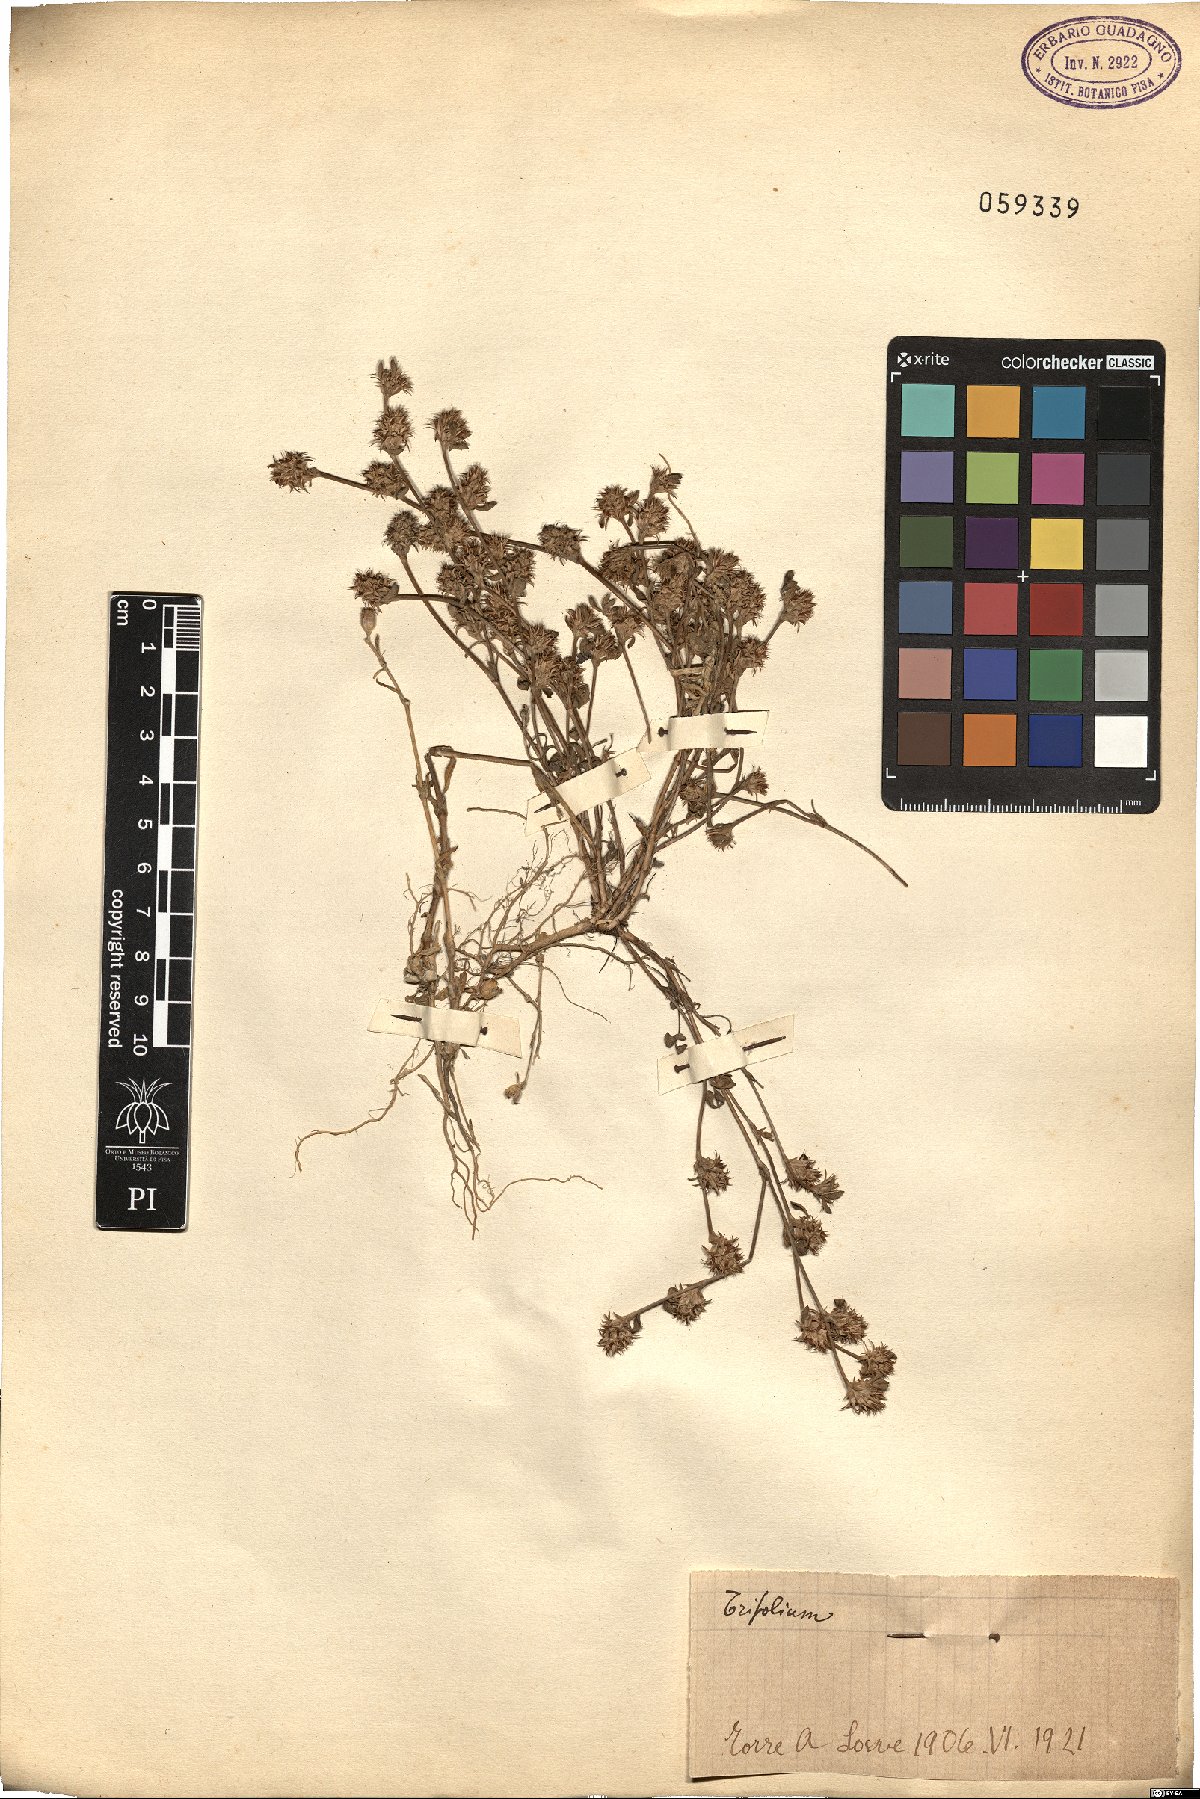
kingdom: Plantae
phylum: Tracheophyta
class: Magnoliopsida
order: Fabales
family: Fabaceae
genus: Trifolium
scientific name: Trifolium
